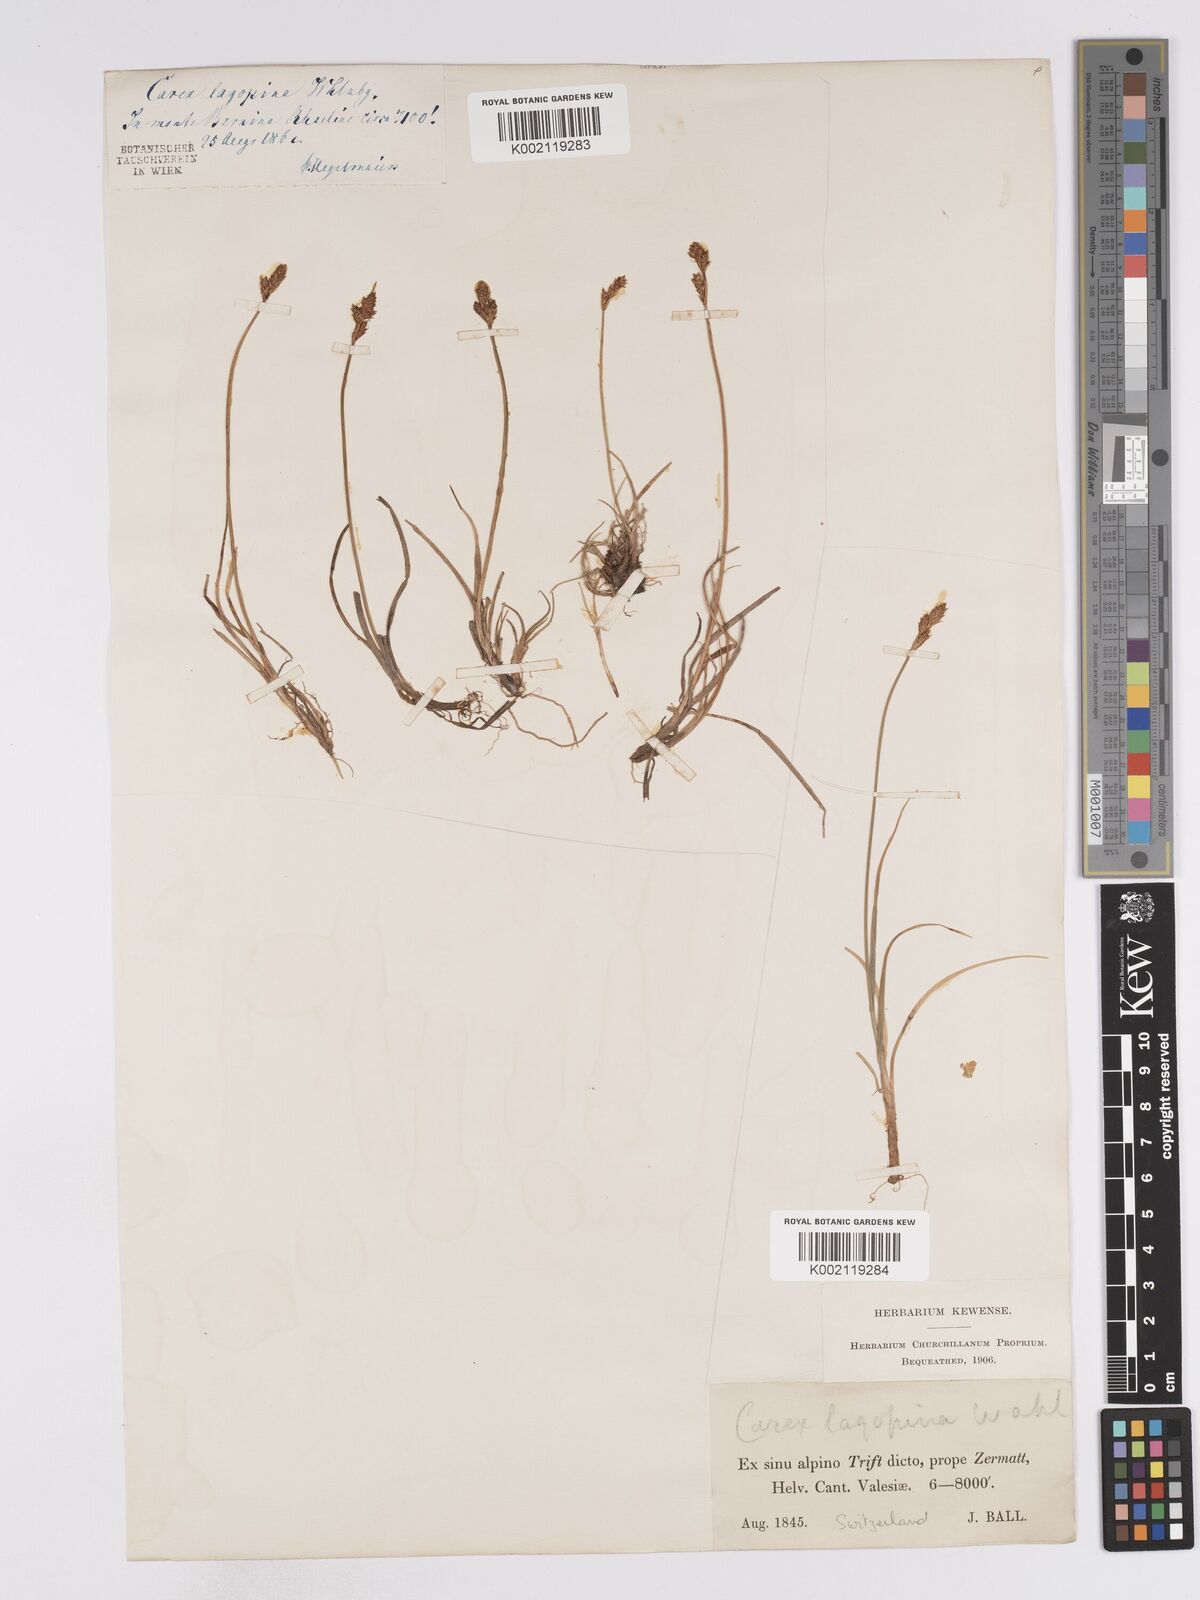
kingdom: Plantae
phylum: Tracheophyta
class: Liliopsida
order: Poales
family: Cyperaceae
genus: Carex
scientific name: Carex lachenalii
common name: Hare's-foot sedge
